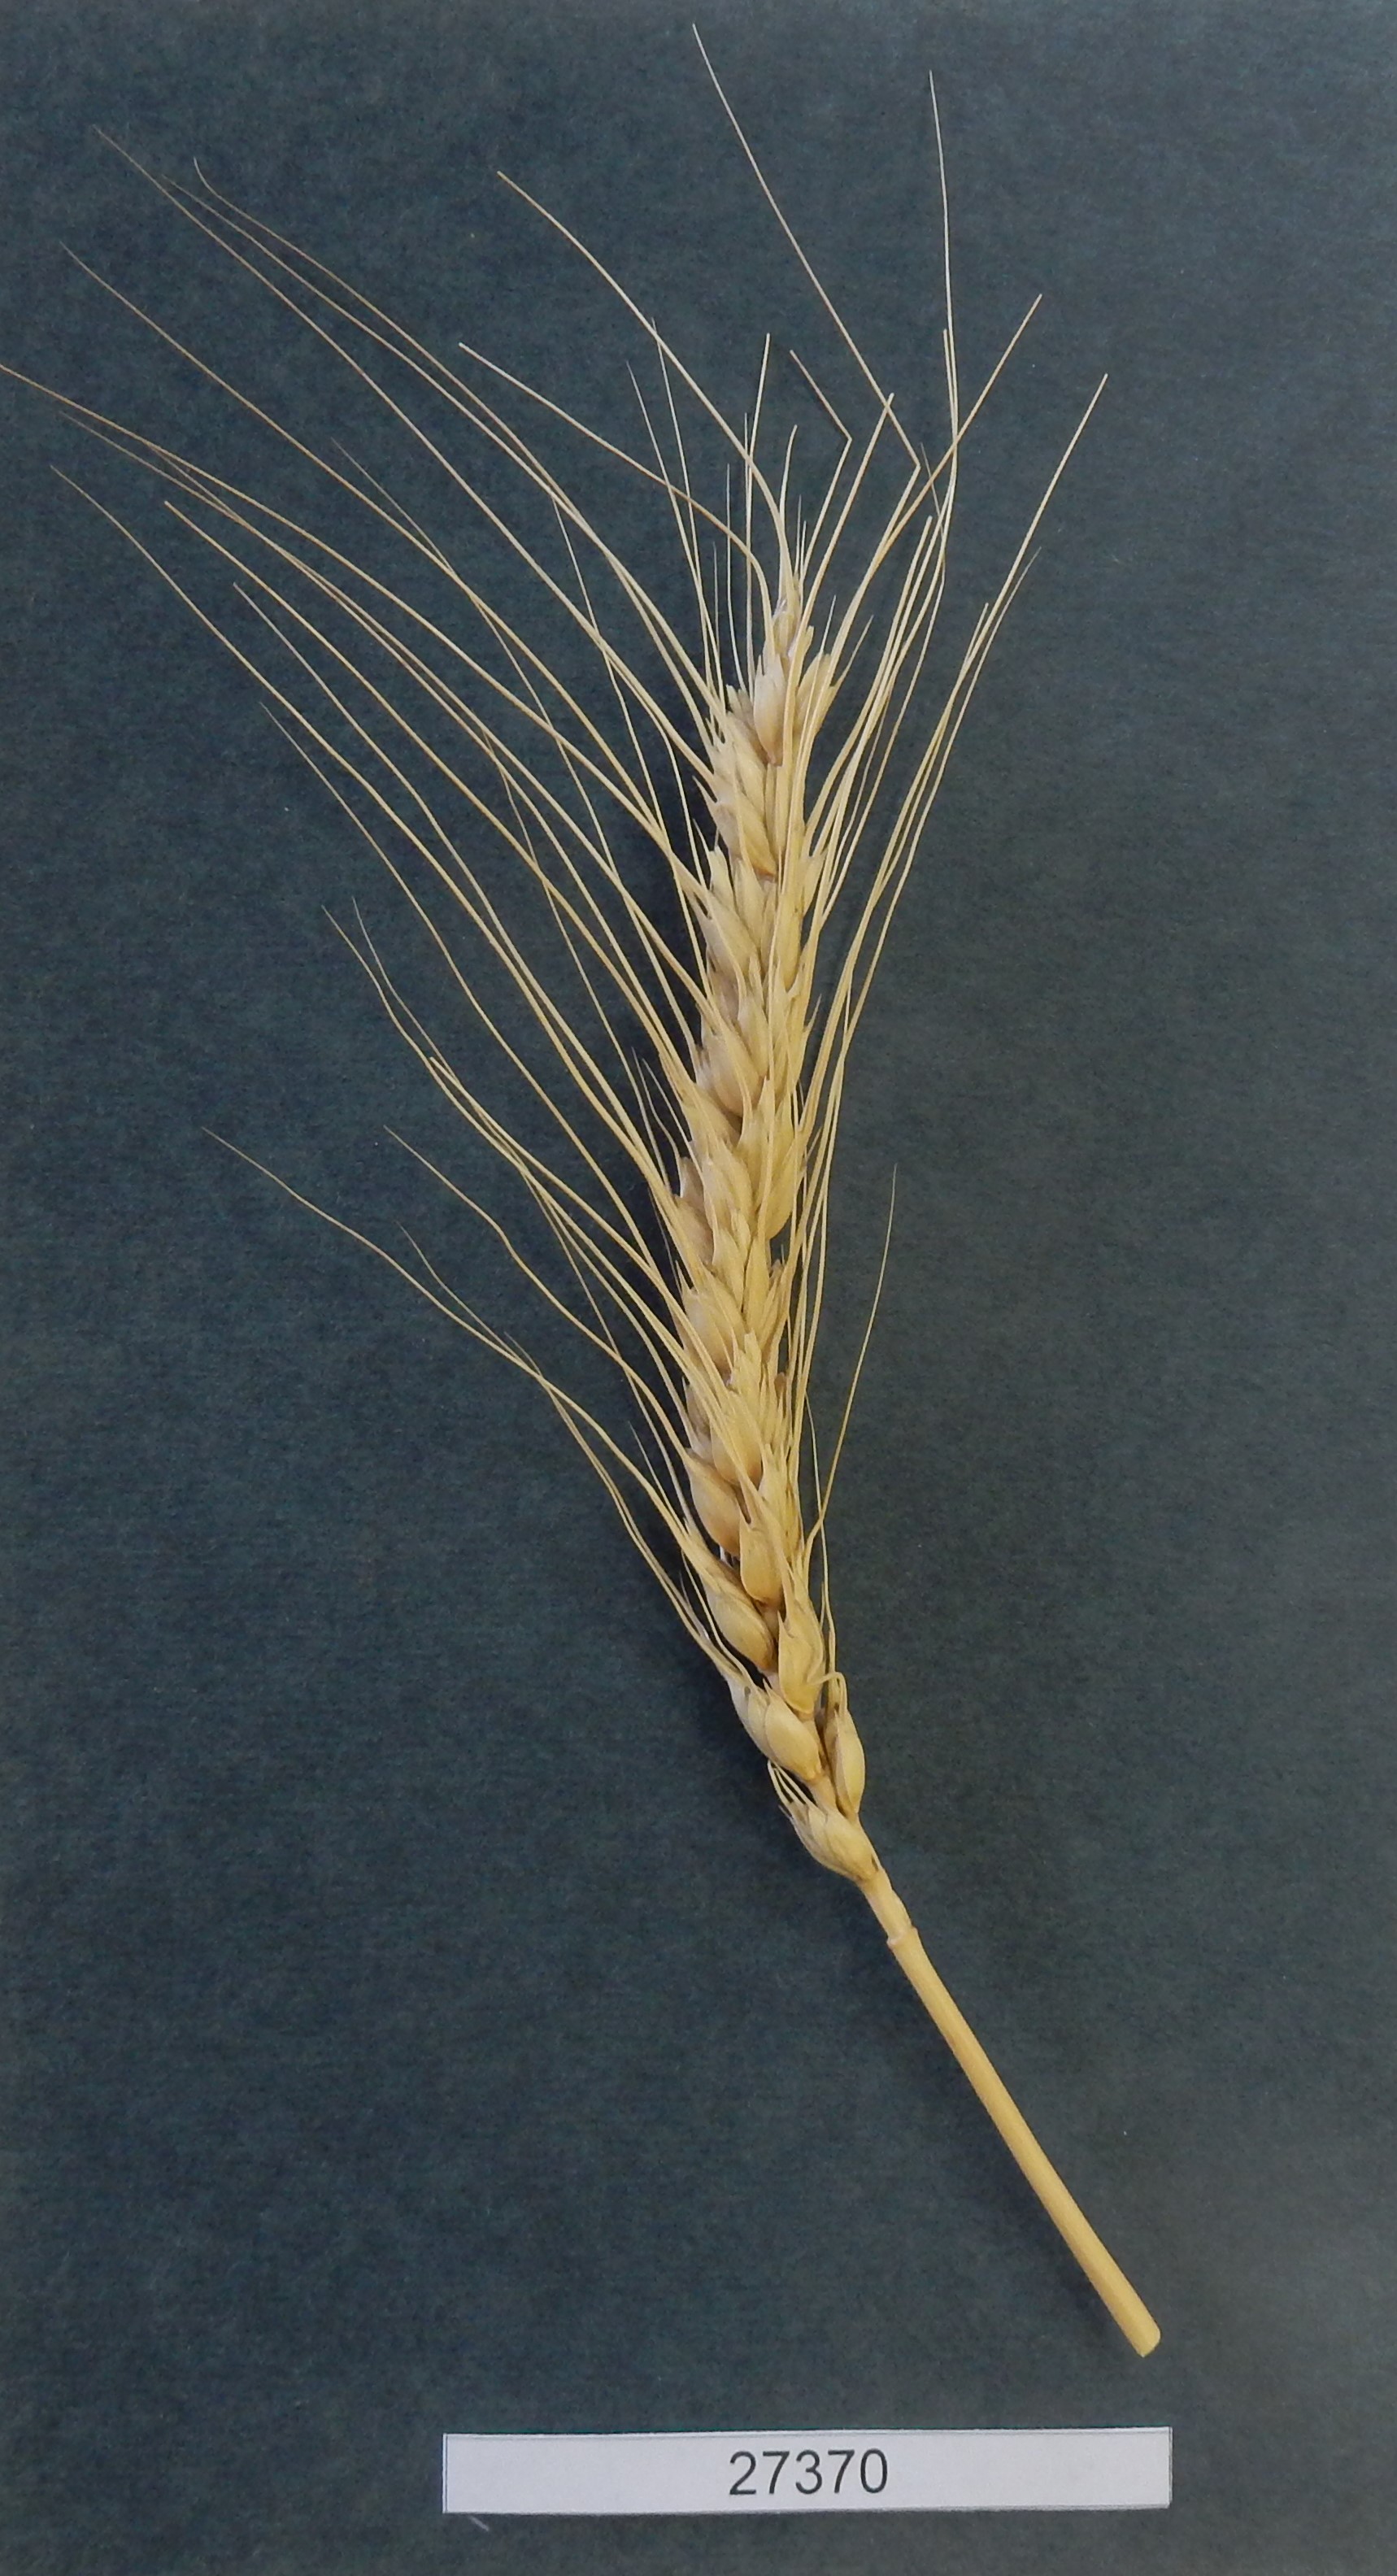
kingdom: Plantae
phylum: Tracheophyta
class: Liliopsida
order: Poales
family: Poaceae
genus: Triticum
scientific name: Triticum aestivum
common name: Common wheat
